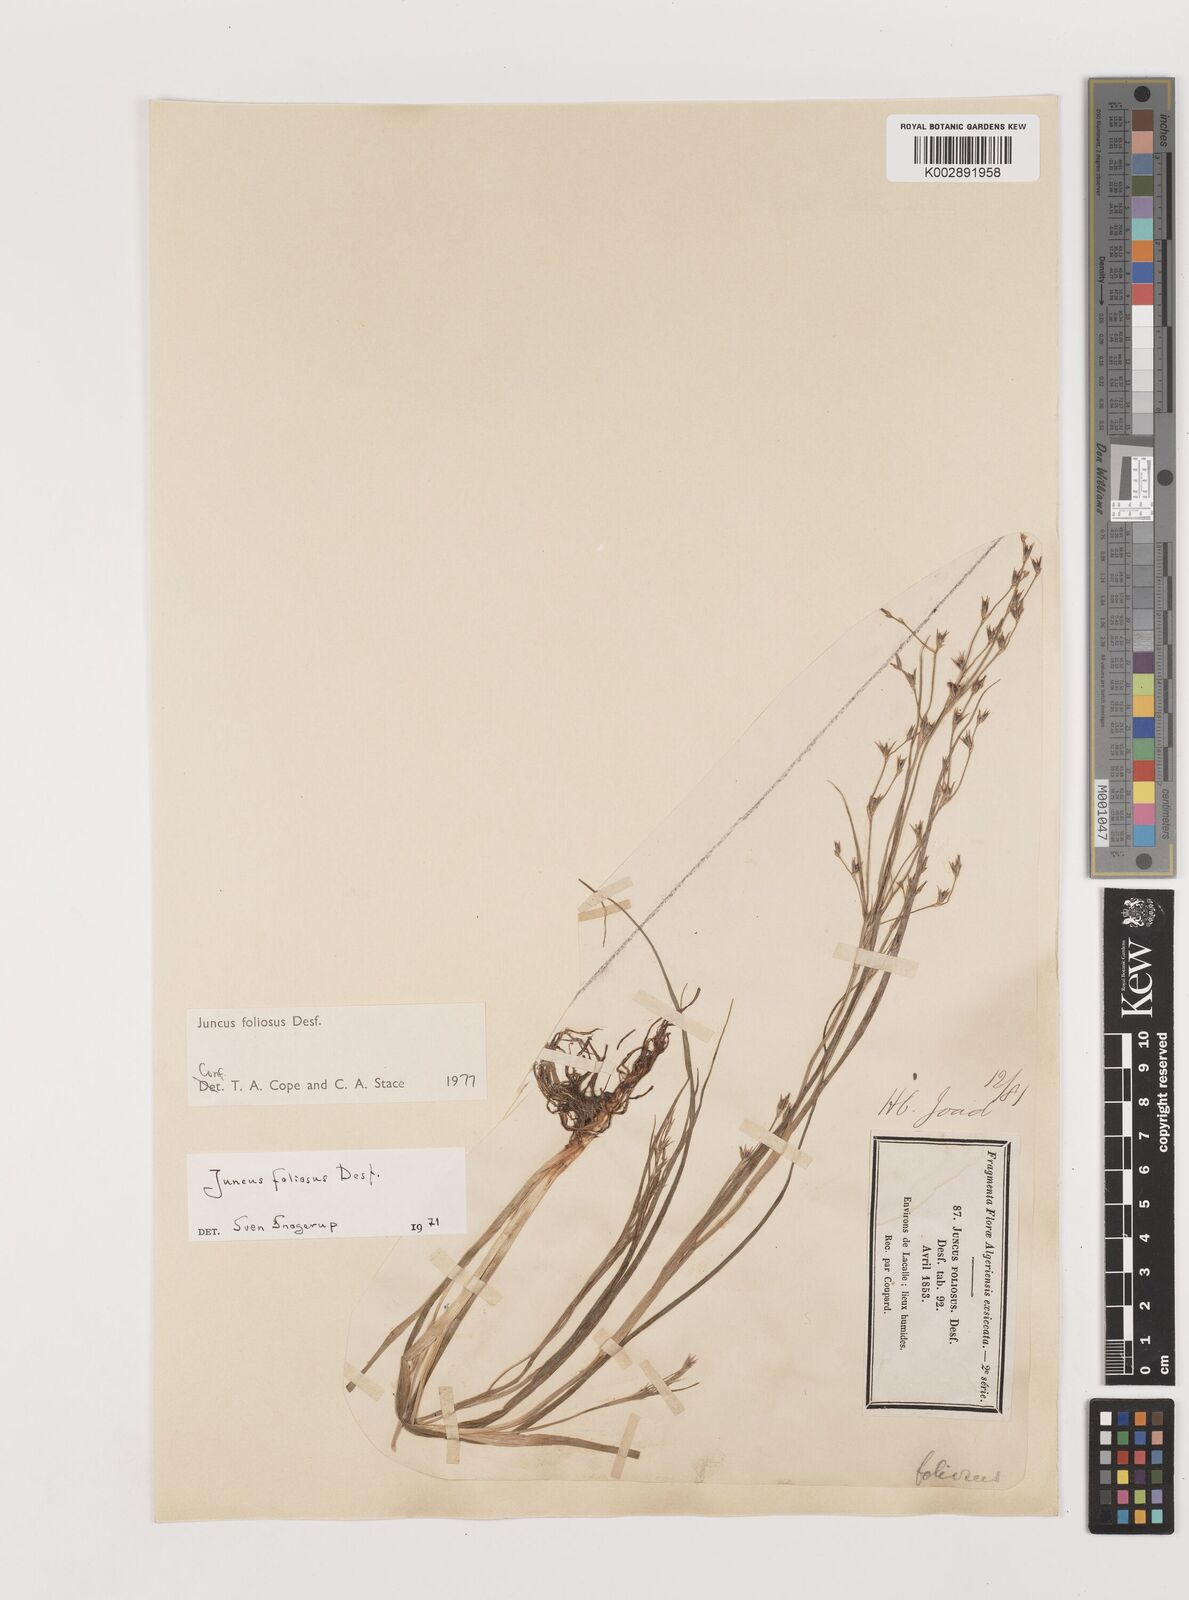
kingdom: Plantae
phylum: Tracheophyta
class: Liliopsida
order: Poales
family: Juncaceae
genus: Juncus
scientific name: Juncus acutiflorus
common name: Sharp-flowered rush
